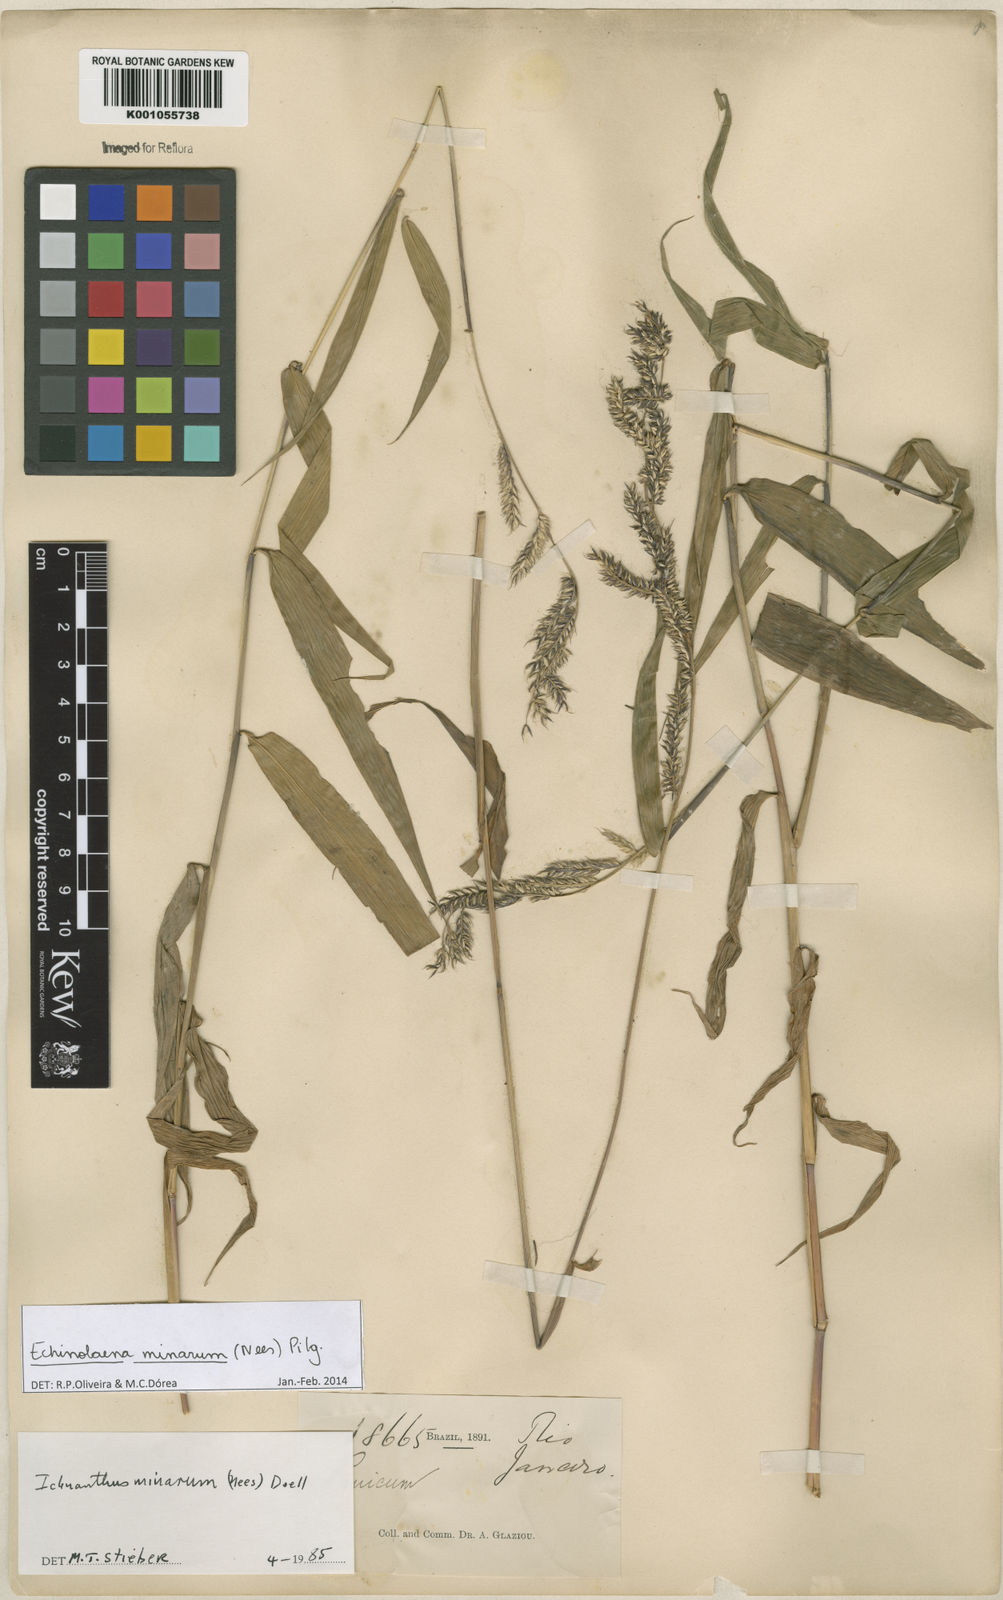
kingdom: Plantae
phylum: Tracheophyta
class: Liliopsida
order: Poales
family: Poaceae
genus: Oedochloa
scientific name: Oedochloa minarum
